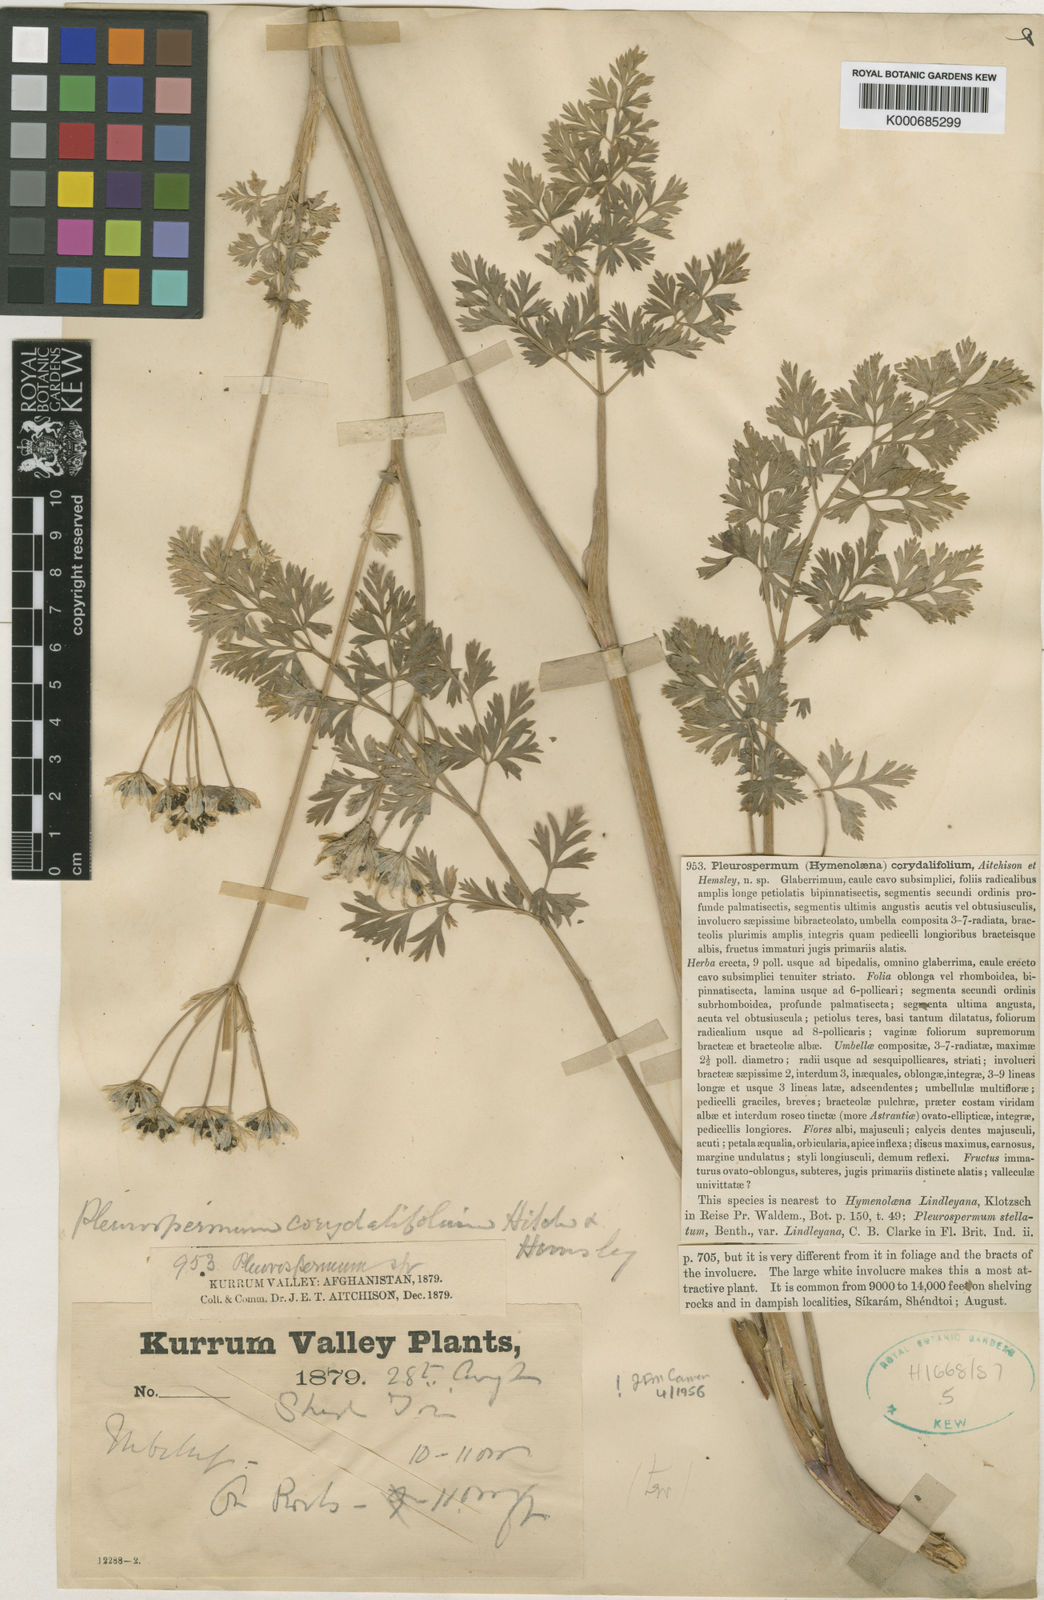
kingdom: Plantae
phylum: Tracheophyta
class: Magnoliopsida
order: Apiales
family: Apiaceae
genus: Hymenidium
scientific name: Hymenidium corydalifolium
